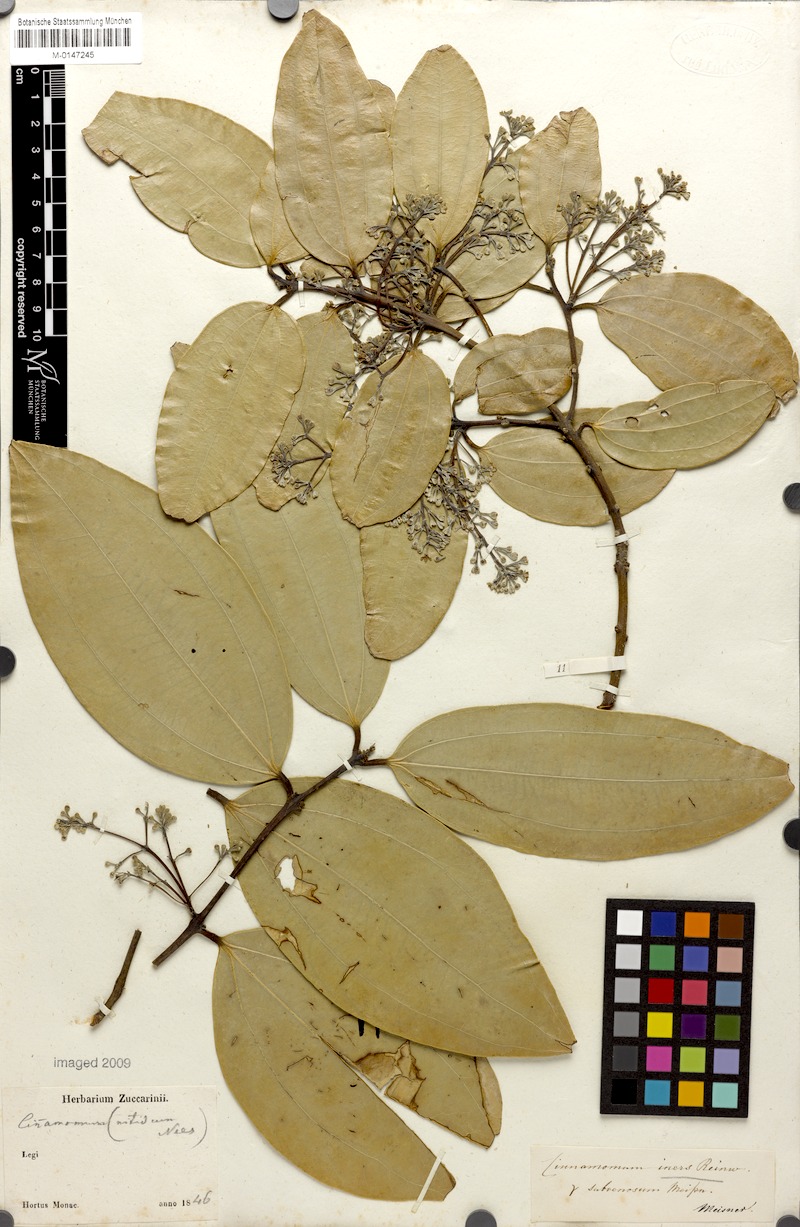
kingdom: Plantae
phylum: Tracheophyta
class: Magnoliopsida
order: Laurales
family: Lauraceae
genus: Cinnamomum
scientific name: Cinnamomum heyneanum
